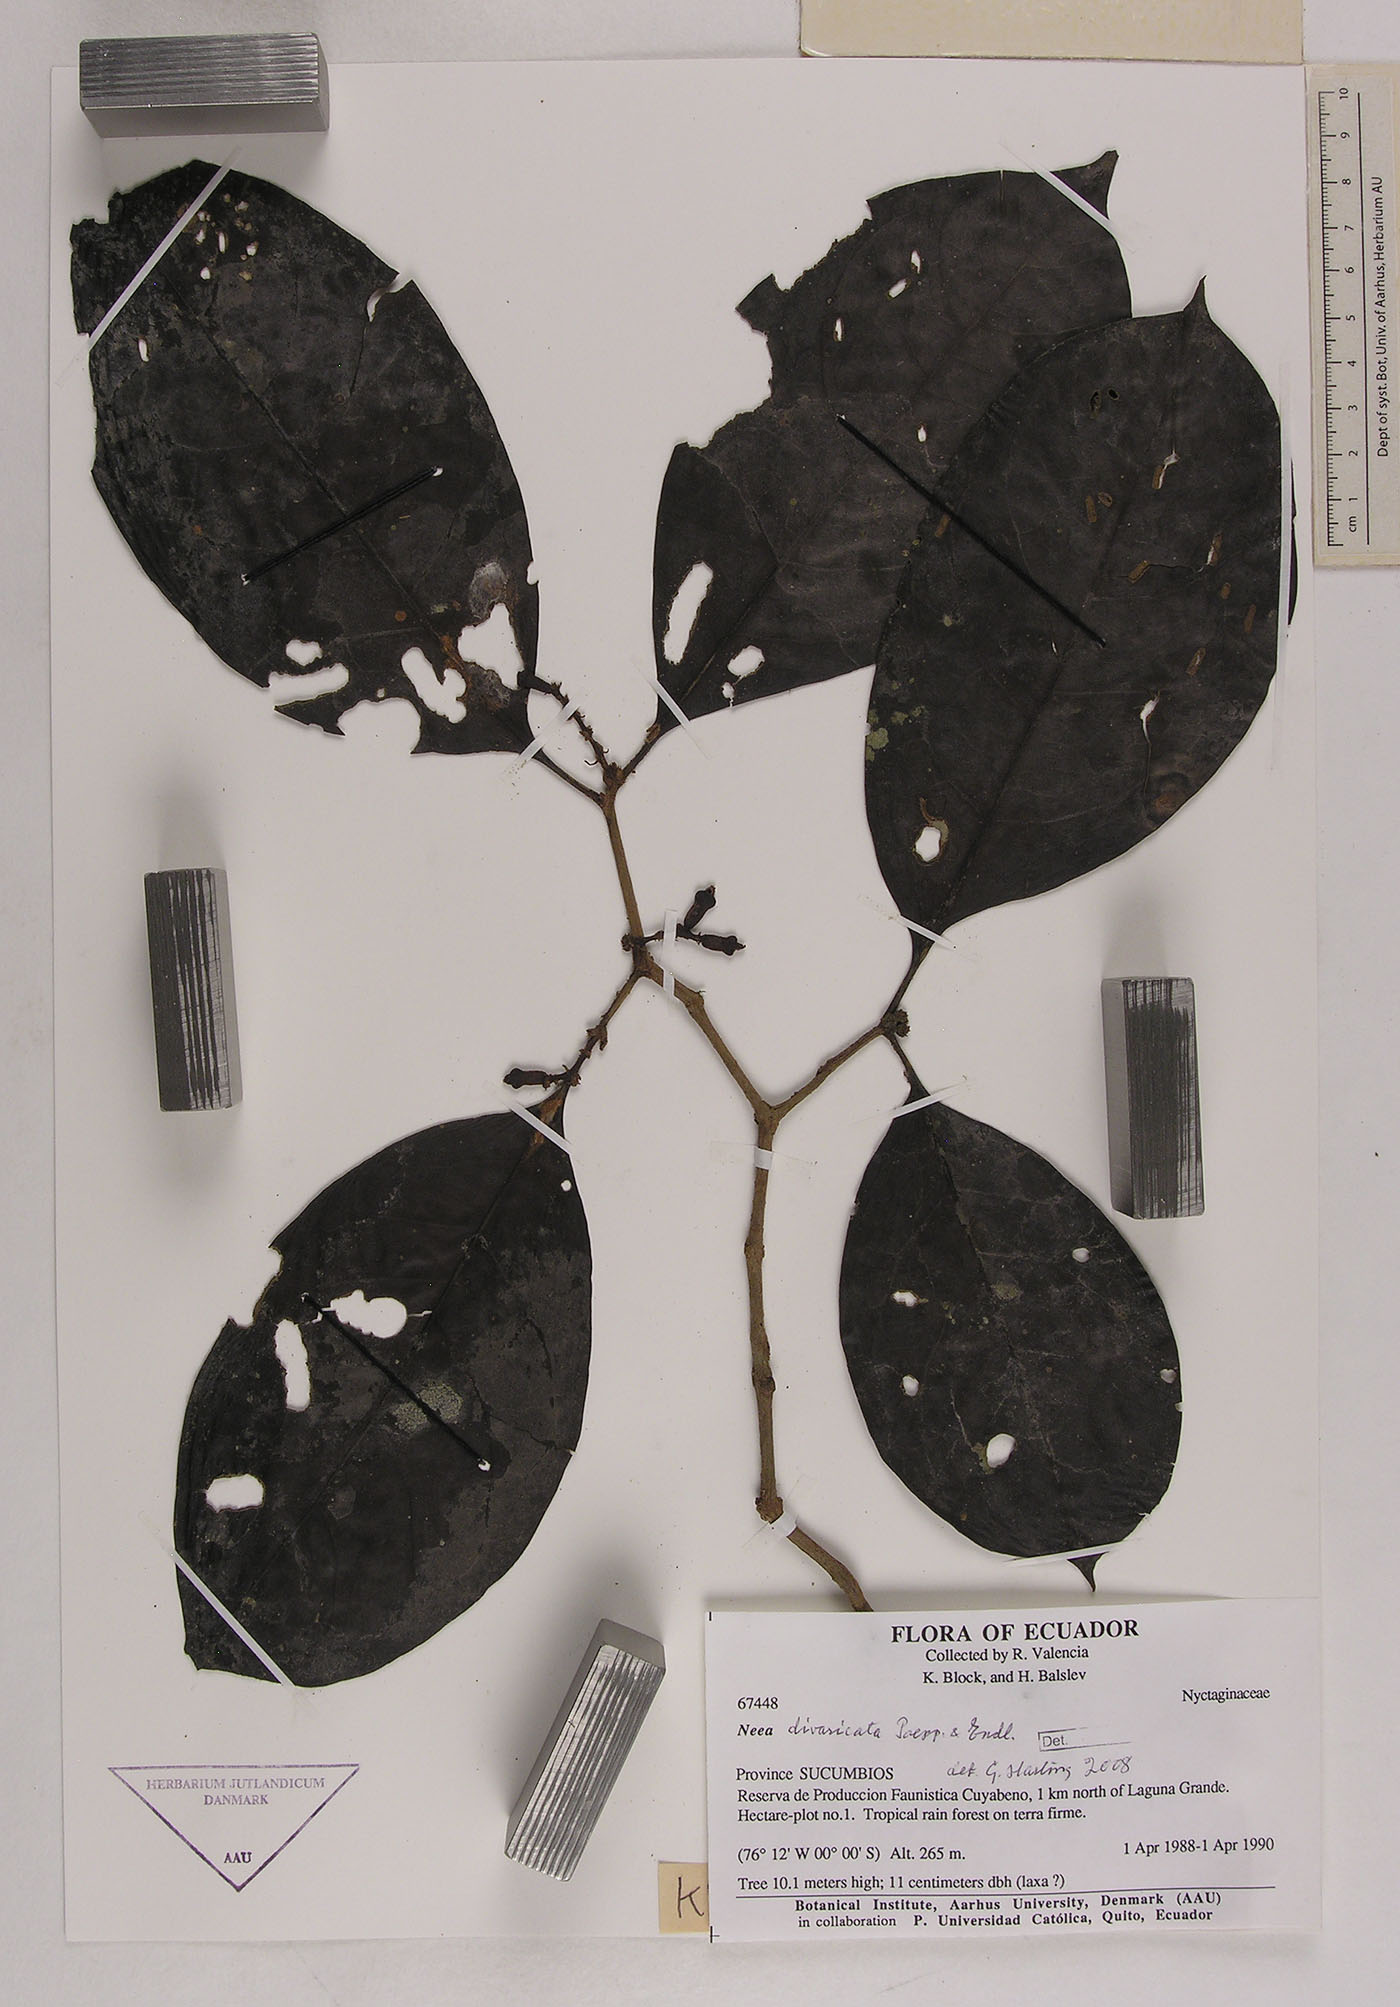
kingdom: Plantae
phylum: Tracheophyta
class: Magnoliopsida
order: Caryophyllales
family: Nyctaginaceae
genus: Neea
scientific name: Neea divaricata
